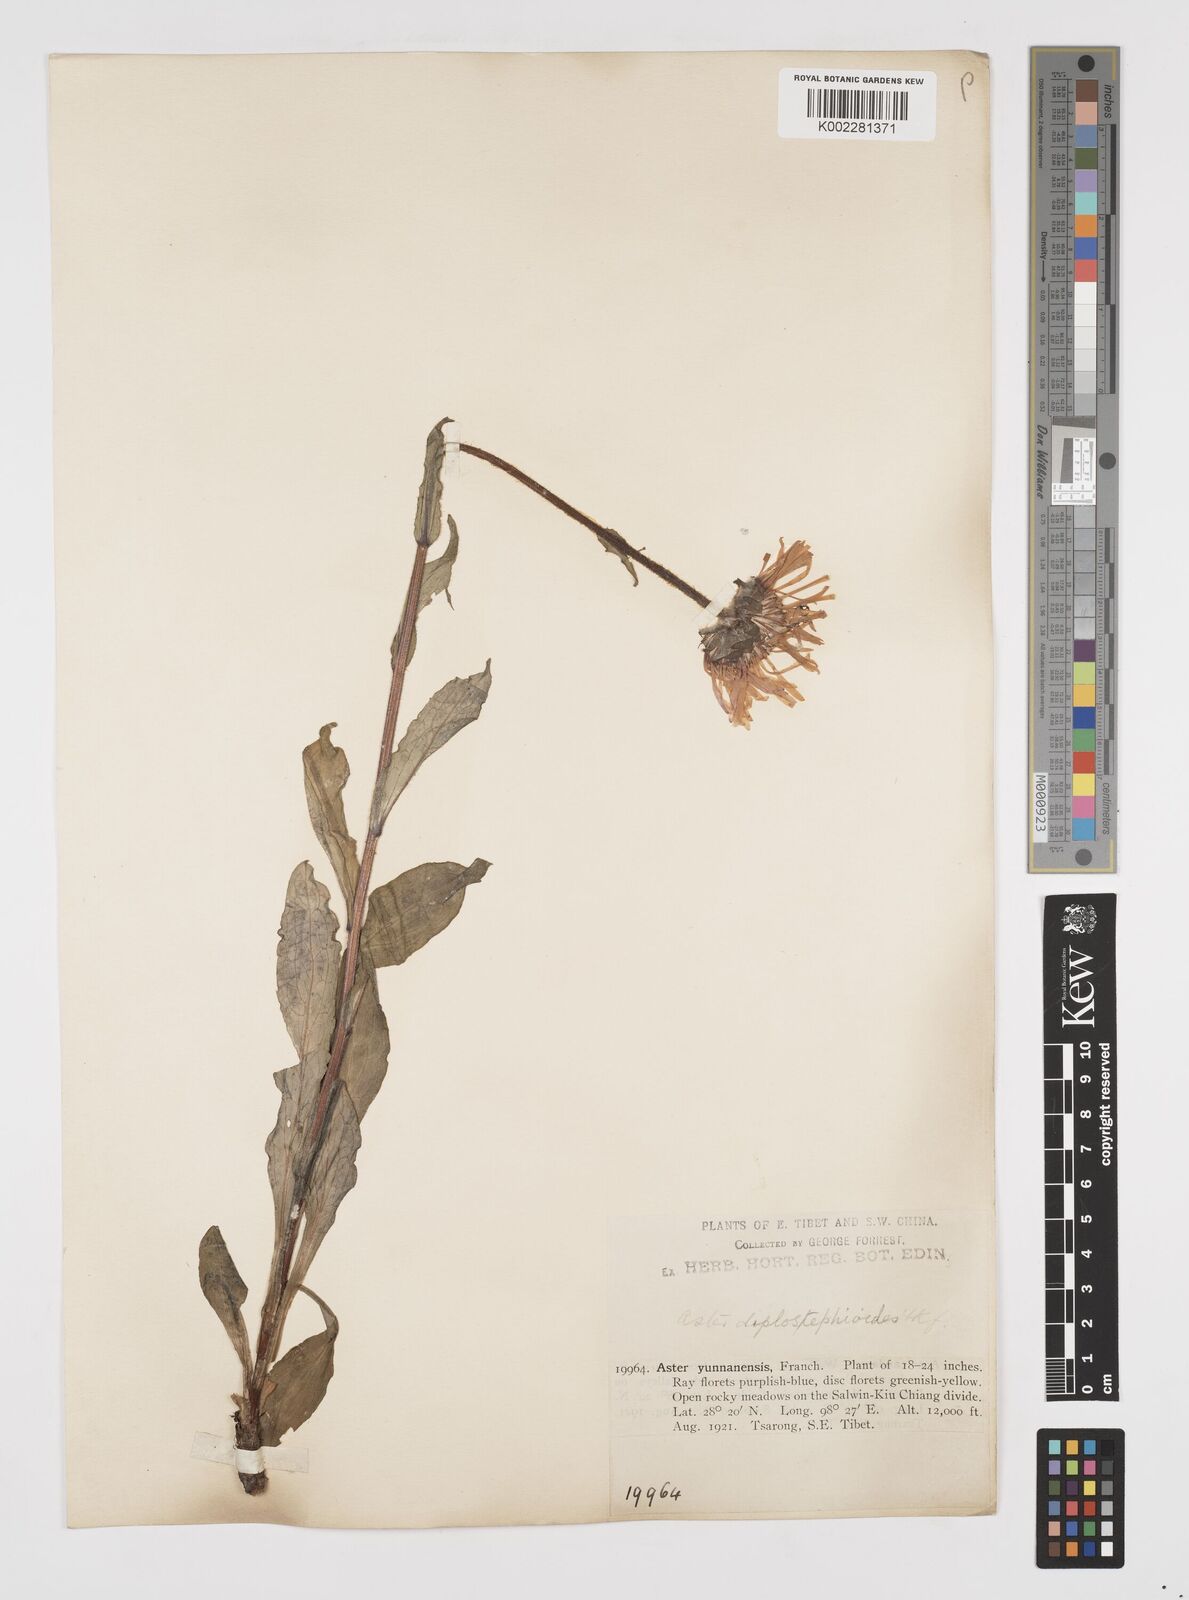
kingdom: Plantae
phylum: Tracheophyta
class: Magnoliopsida
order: Asterales
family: Asteraceae
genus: Tibetiodes
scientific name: Tibetiodes diplostephioides
